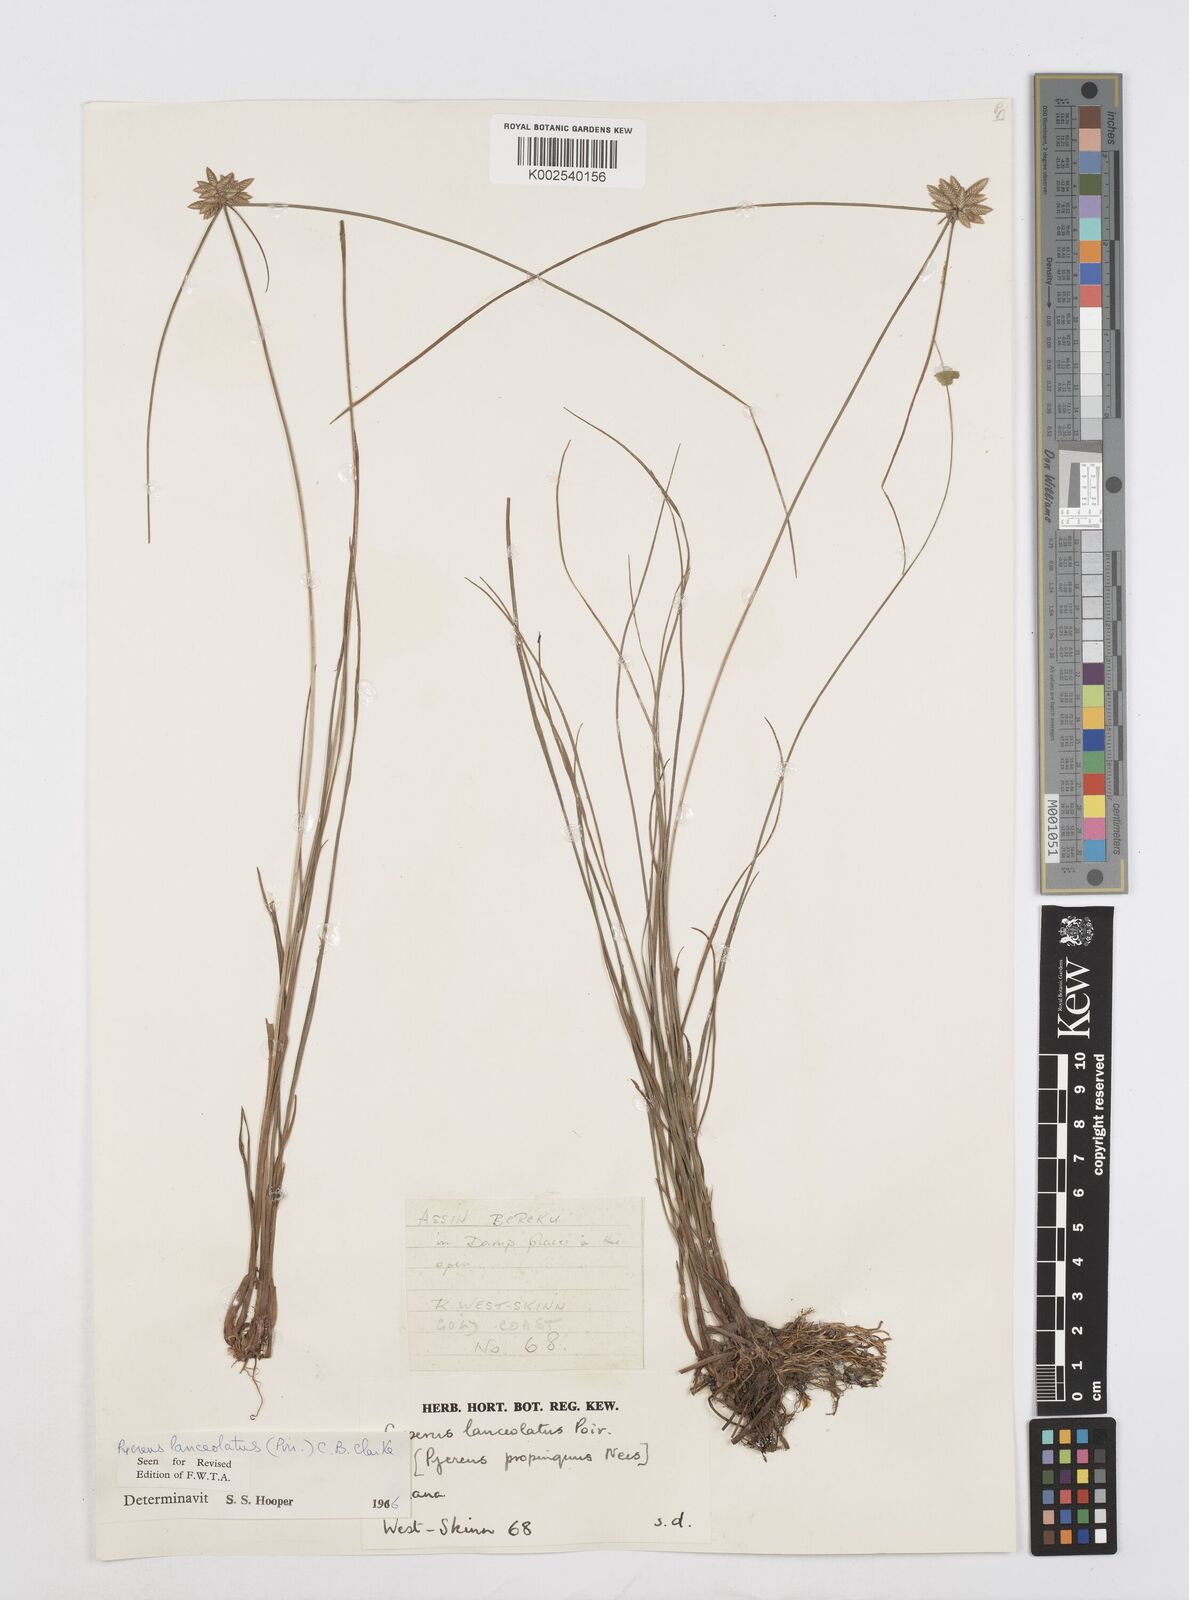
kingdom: Plantae
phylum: Tracheophyta
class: Liliopsida
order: Poales
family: Cyperaceae
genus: Cyperus
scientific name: Cyperus
